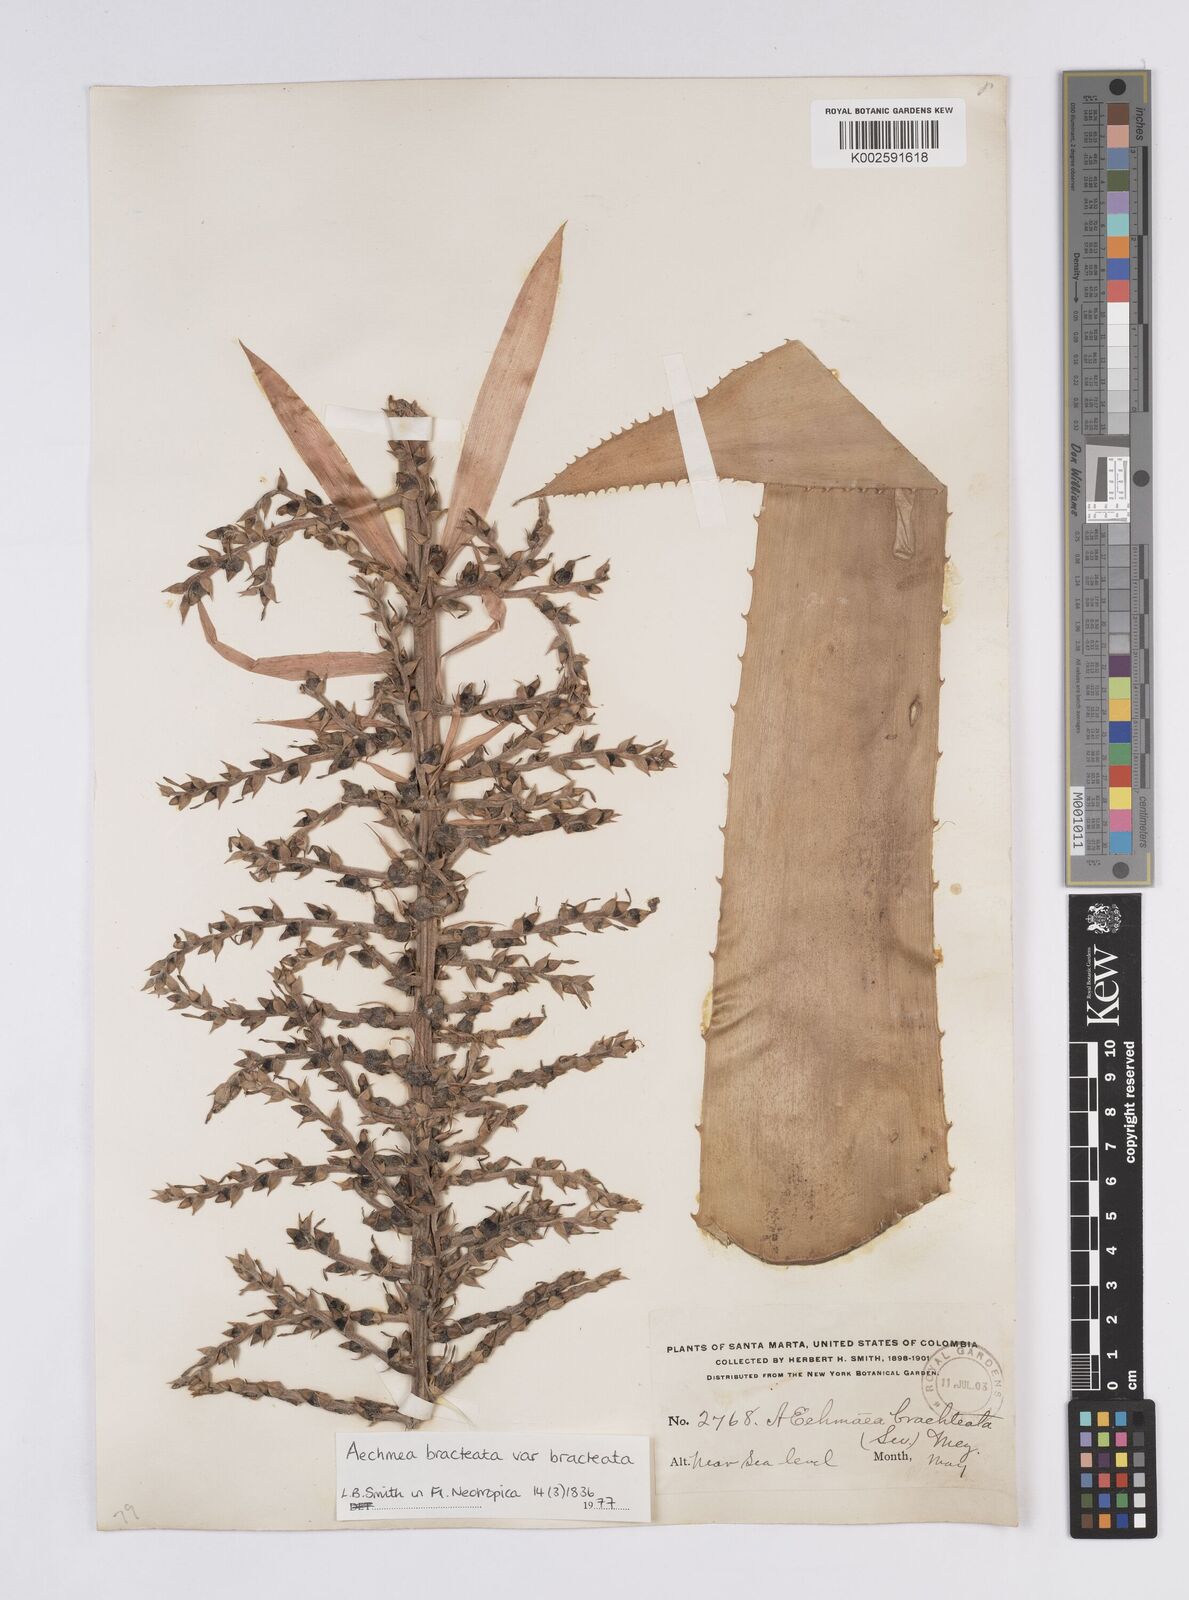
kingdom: Plantae
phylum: Tracheophyta
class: Liliopsida
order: Poales
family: Bromeliaceae
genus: Aechmea
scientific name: Aechmea bracteata
